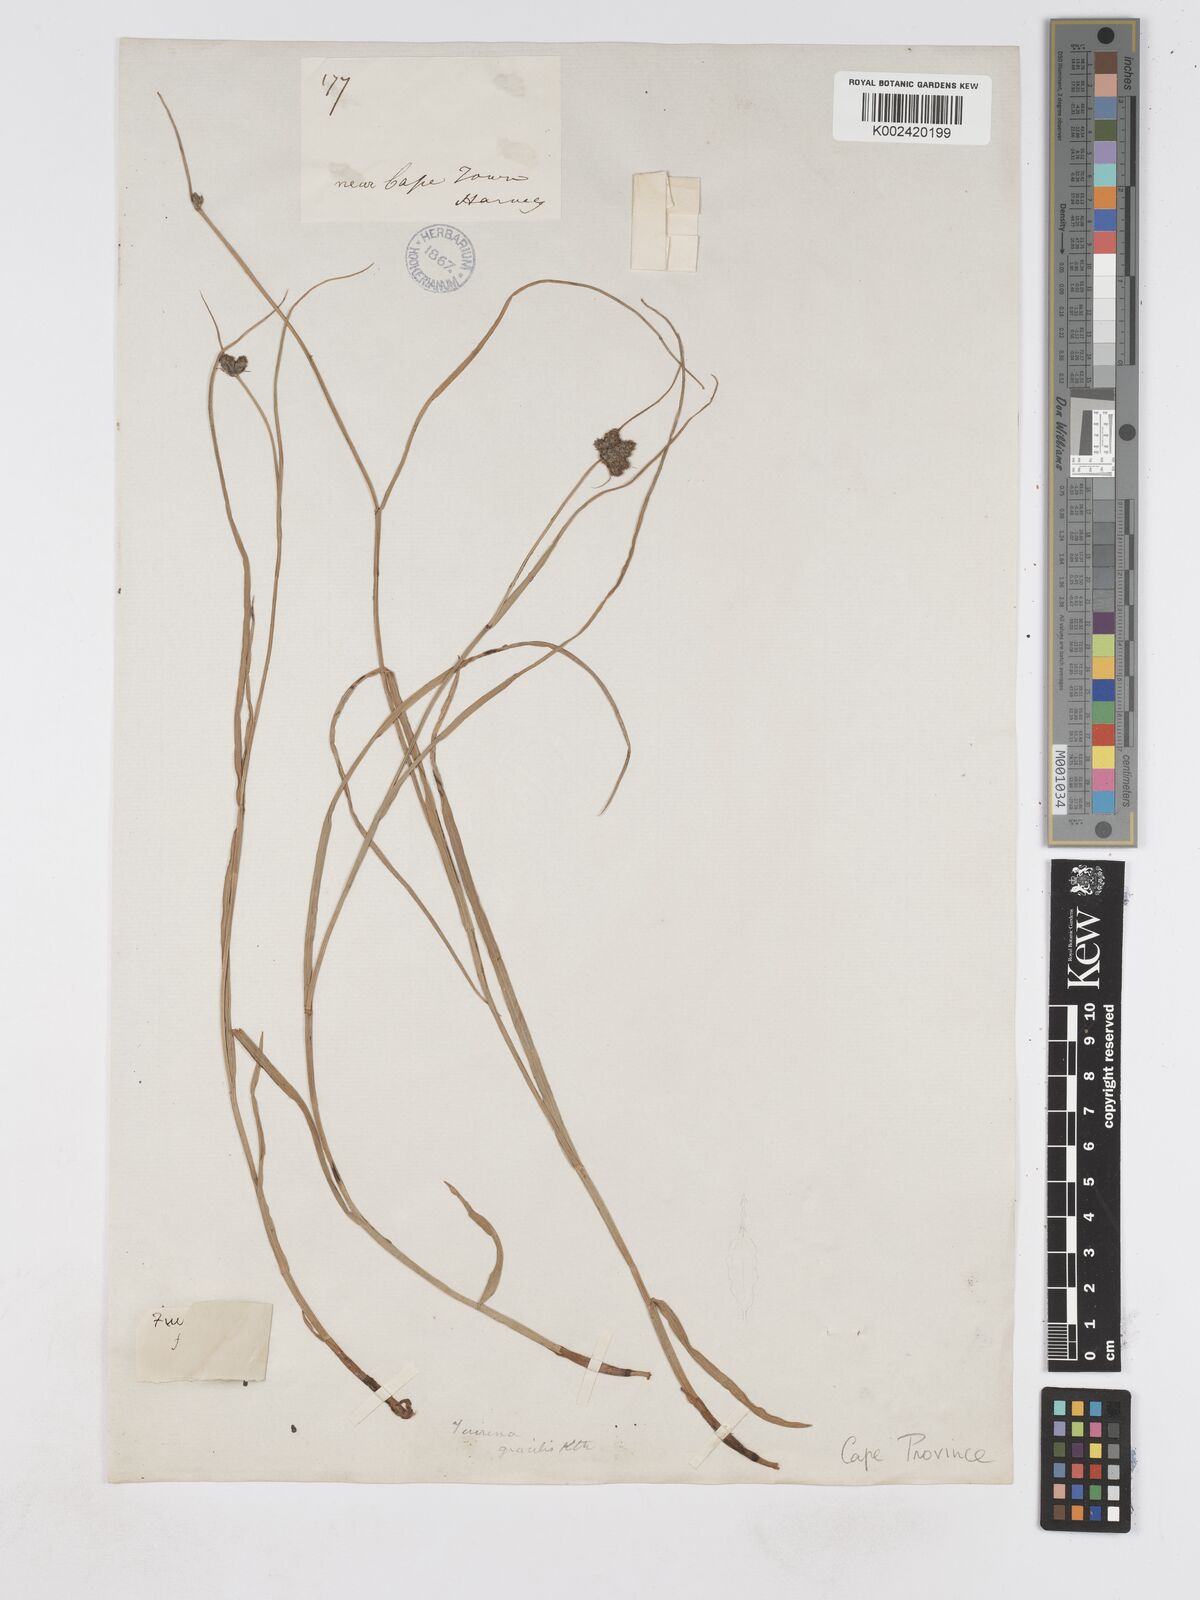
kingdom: Plantae
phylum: Tracheophyta
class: Liliopsida
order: Poales
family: Cyperaceae
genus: Fuirena
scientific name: Fuirena coerulescens
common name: Blue umbrella-sedge
